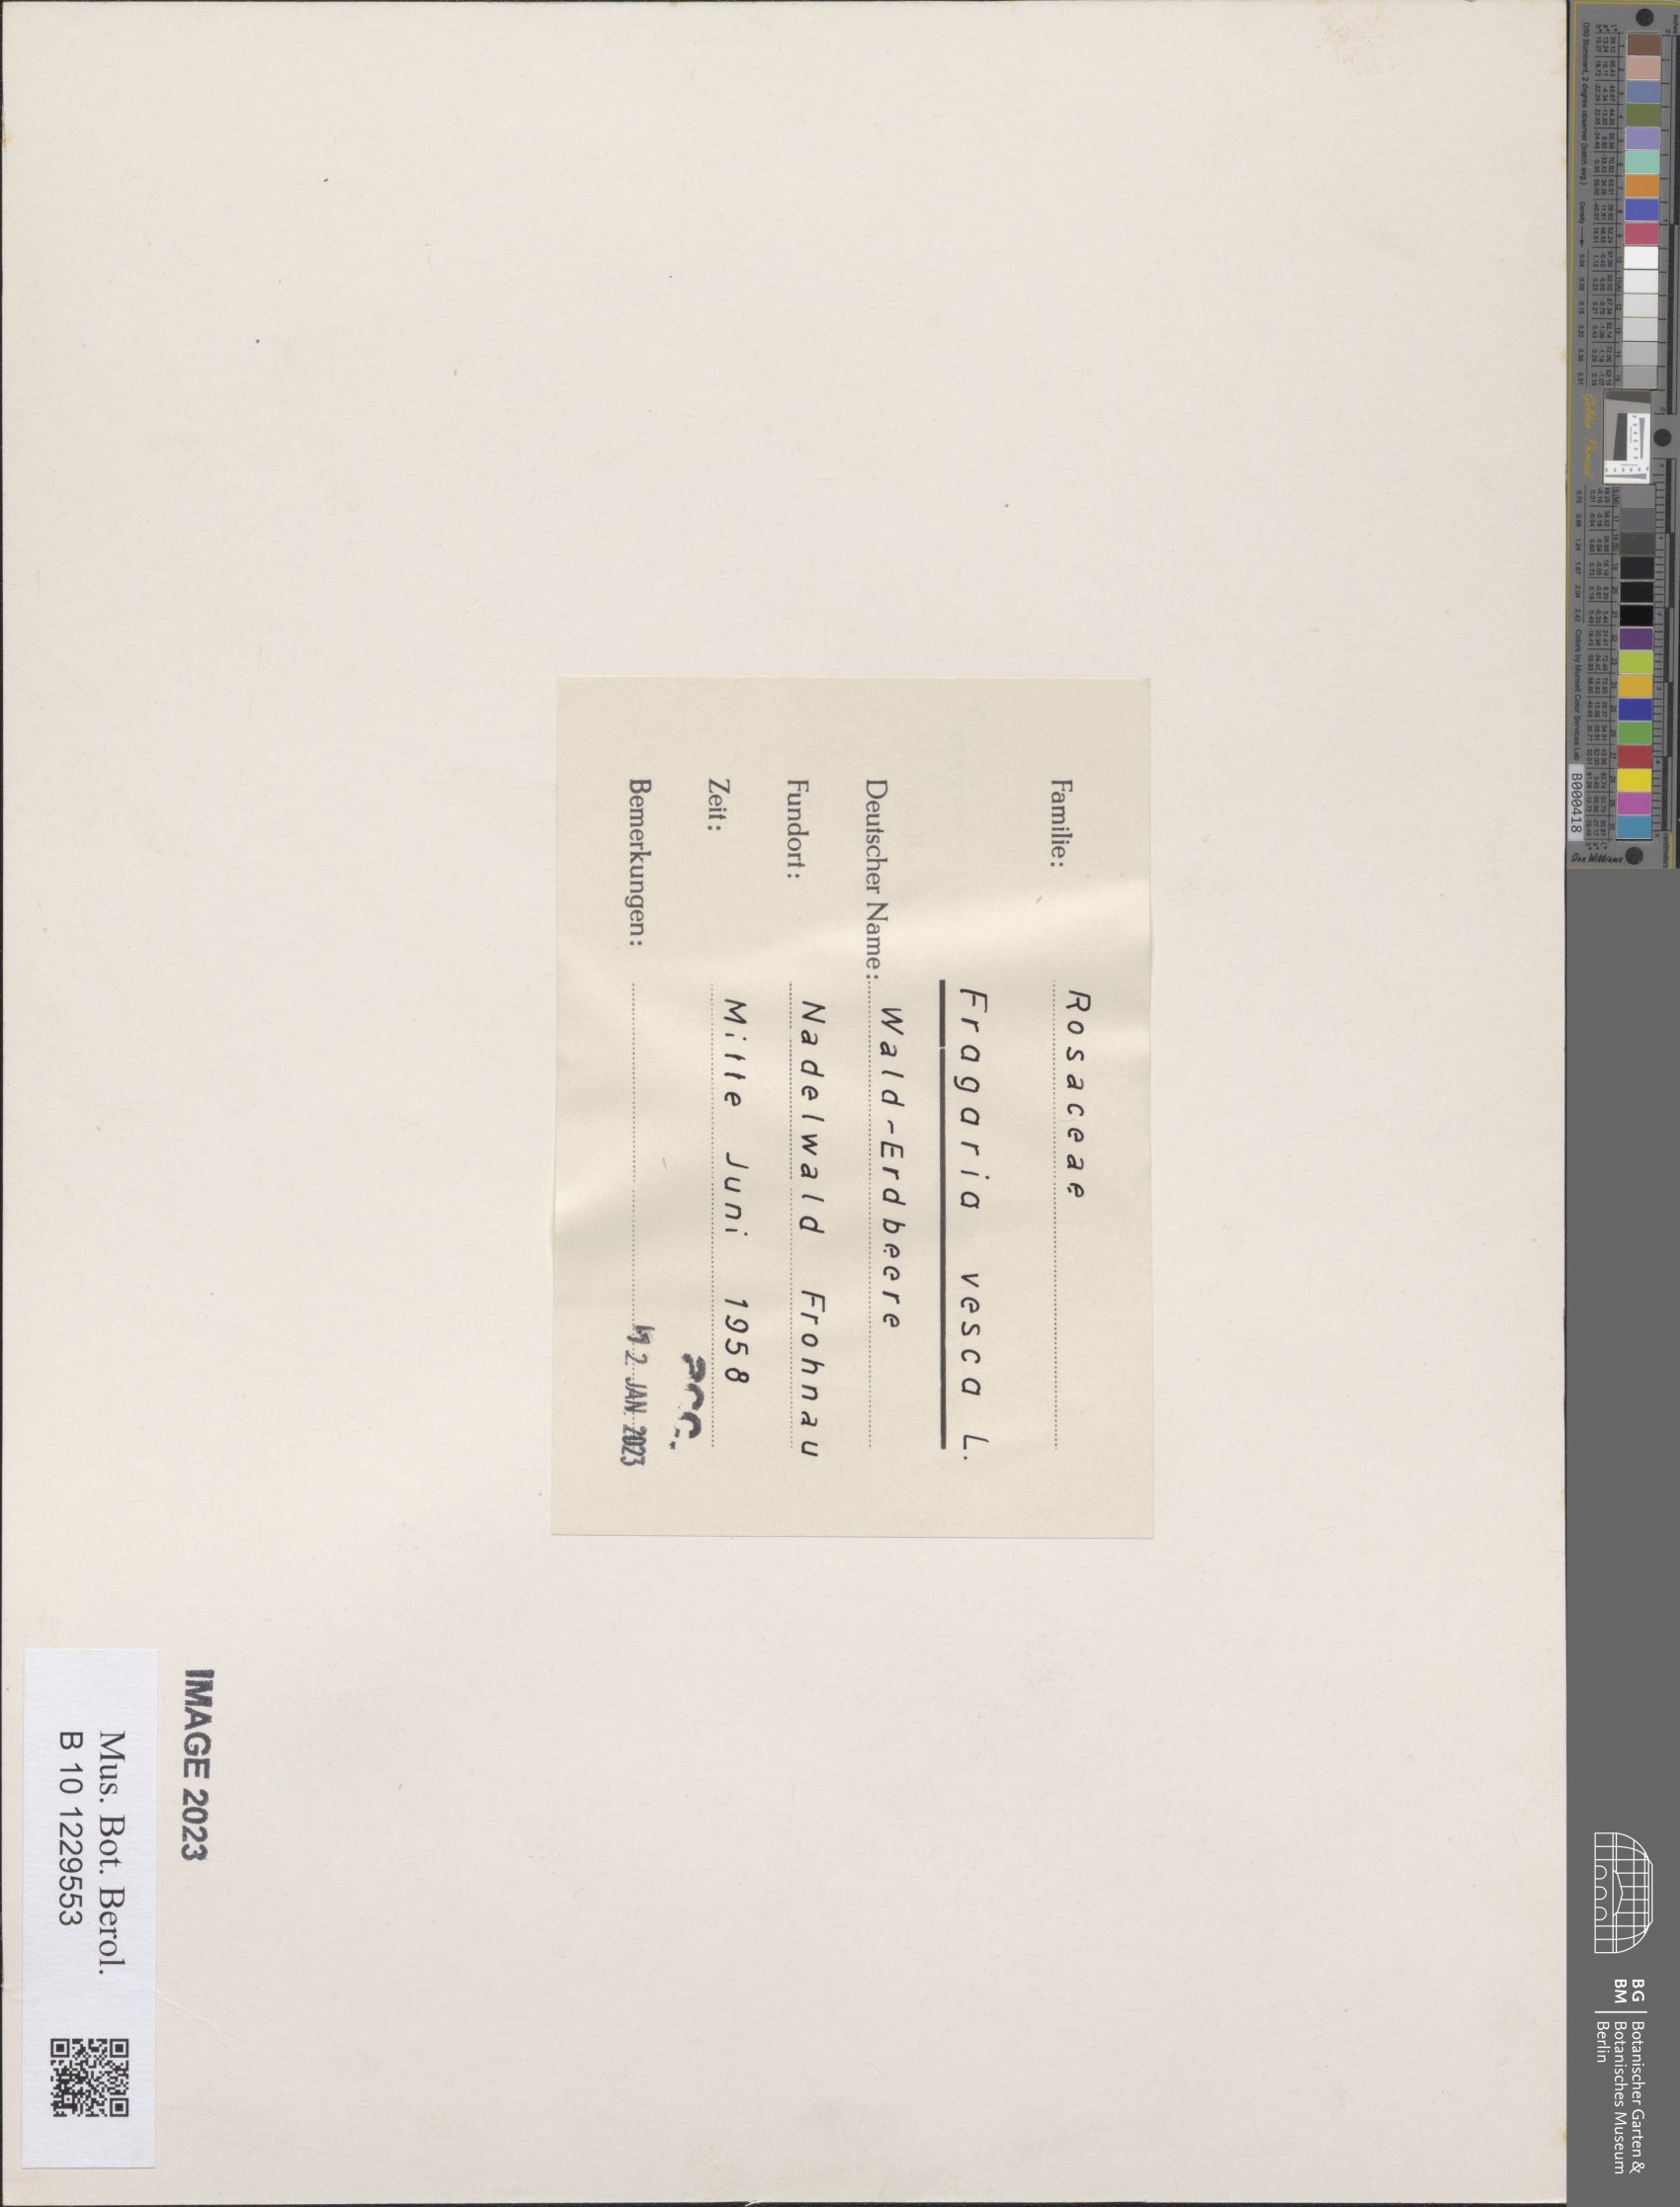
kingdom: Plantae
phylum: Tracheophyta
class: Magnoliopsida
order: Rosales
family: Rosaceae
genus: Fragaria
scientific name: Fragaria vesca
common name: Wild strawberry
